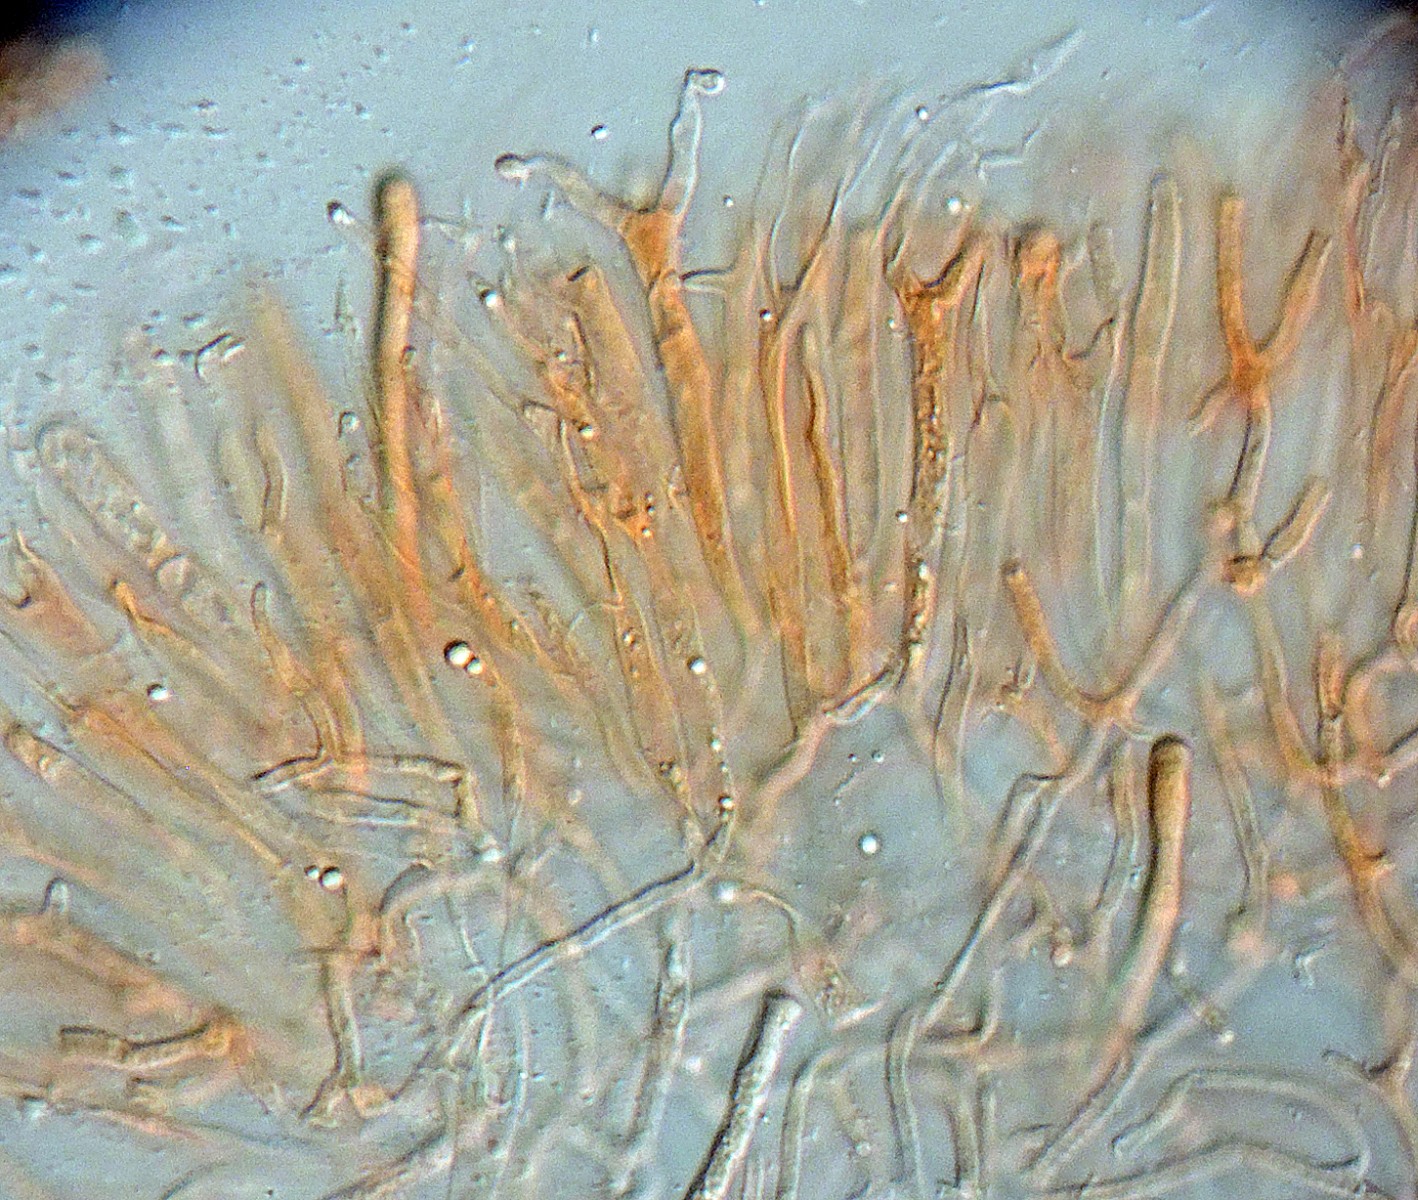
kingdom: Fungi
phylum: Basidiomycota
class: Dacrymycetes
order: Dacrymycetales
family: Dacrymycetaceae
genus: Dacrymyces
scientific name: Dacrymyces lacrymalis
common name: rynket tåresvamp
